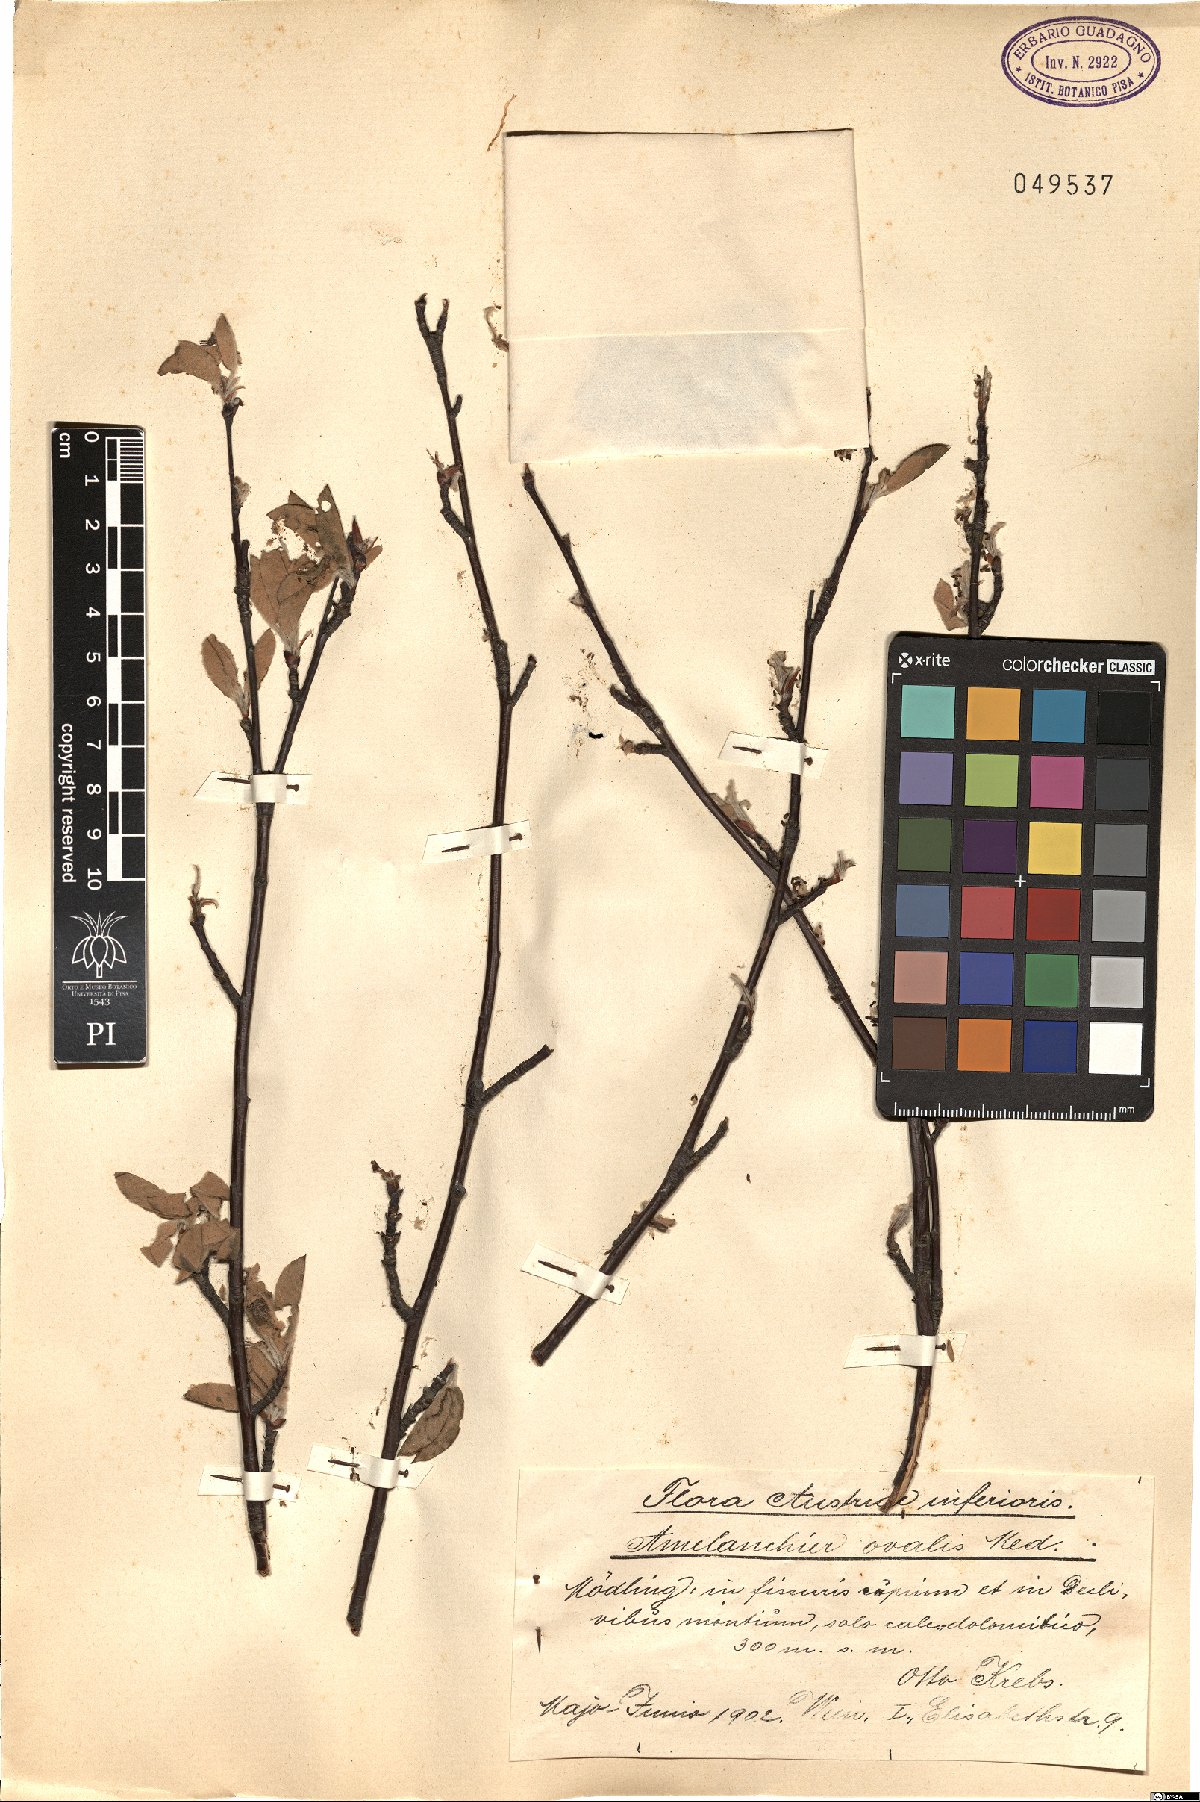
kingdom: Plantae
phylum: Tracheophyta
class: Magnoliopsida
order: Rosales
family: Rosaceae
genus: Amelanchier
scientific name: Amelanchier ovalis
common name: Serviceberry
